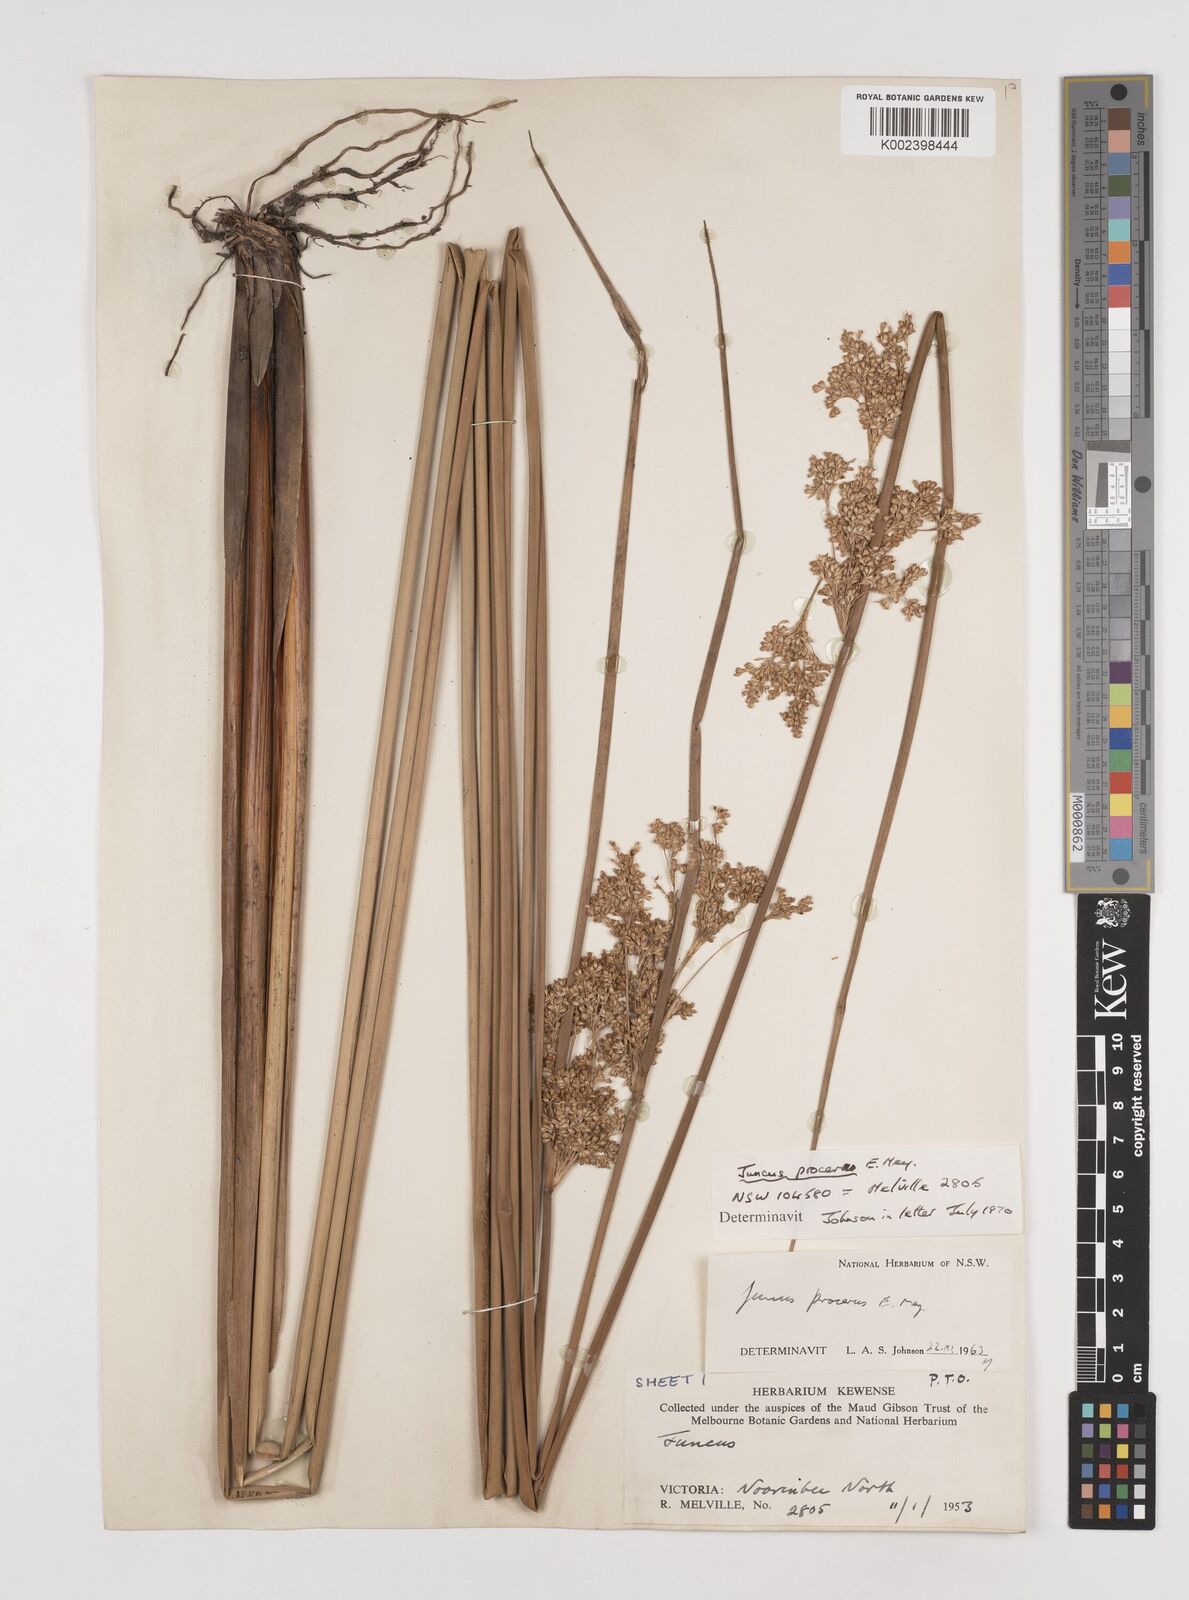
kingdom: Plantae
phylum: Tracheophyta
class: Liliopsida
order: Poales
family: Juncaceae
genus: Juncus
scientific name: Juncus procerus
